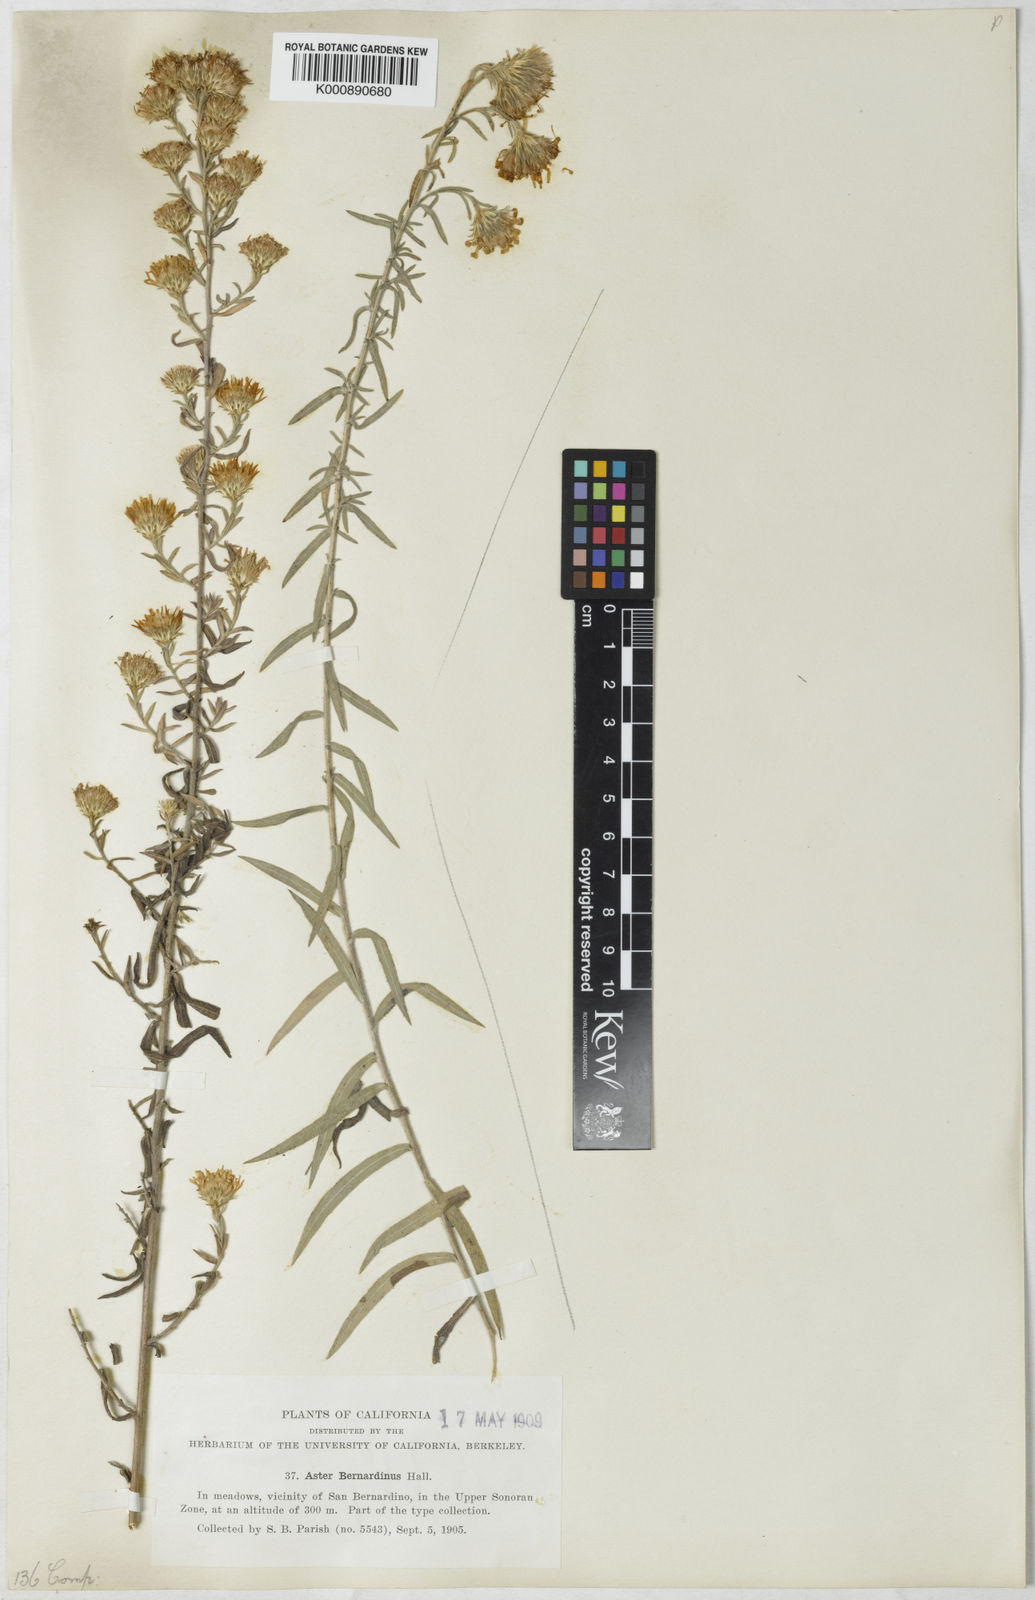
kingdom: Plantae
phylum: Tracheophyta
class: Magnoliopsida
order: Asterales
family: Asteraceae
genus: Symphyotrichum
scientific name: Symphyotrichum defoliatum
